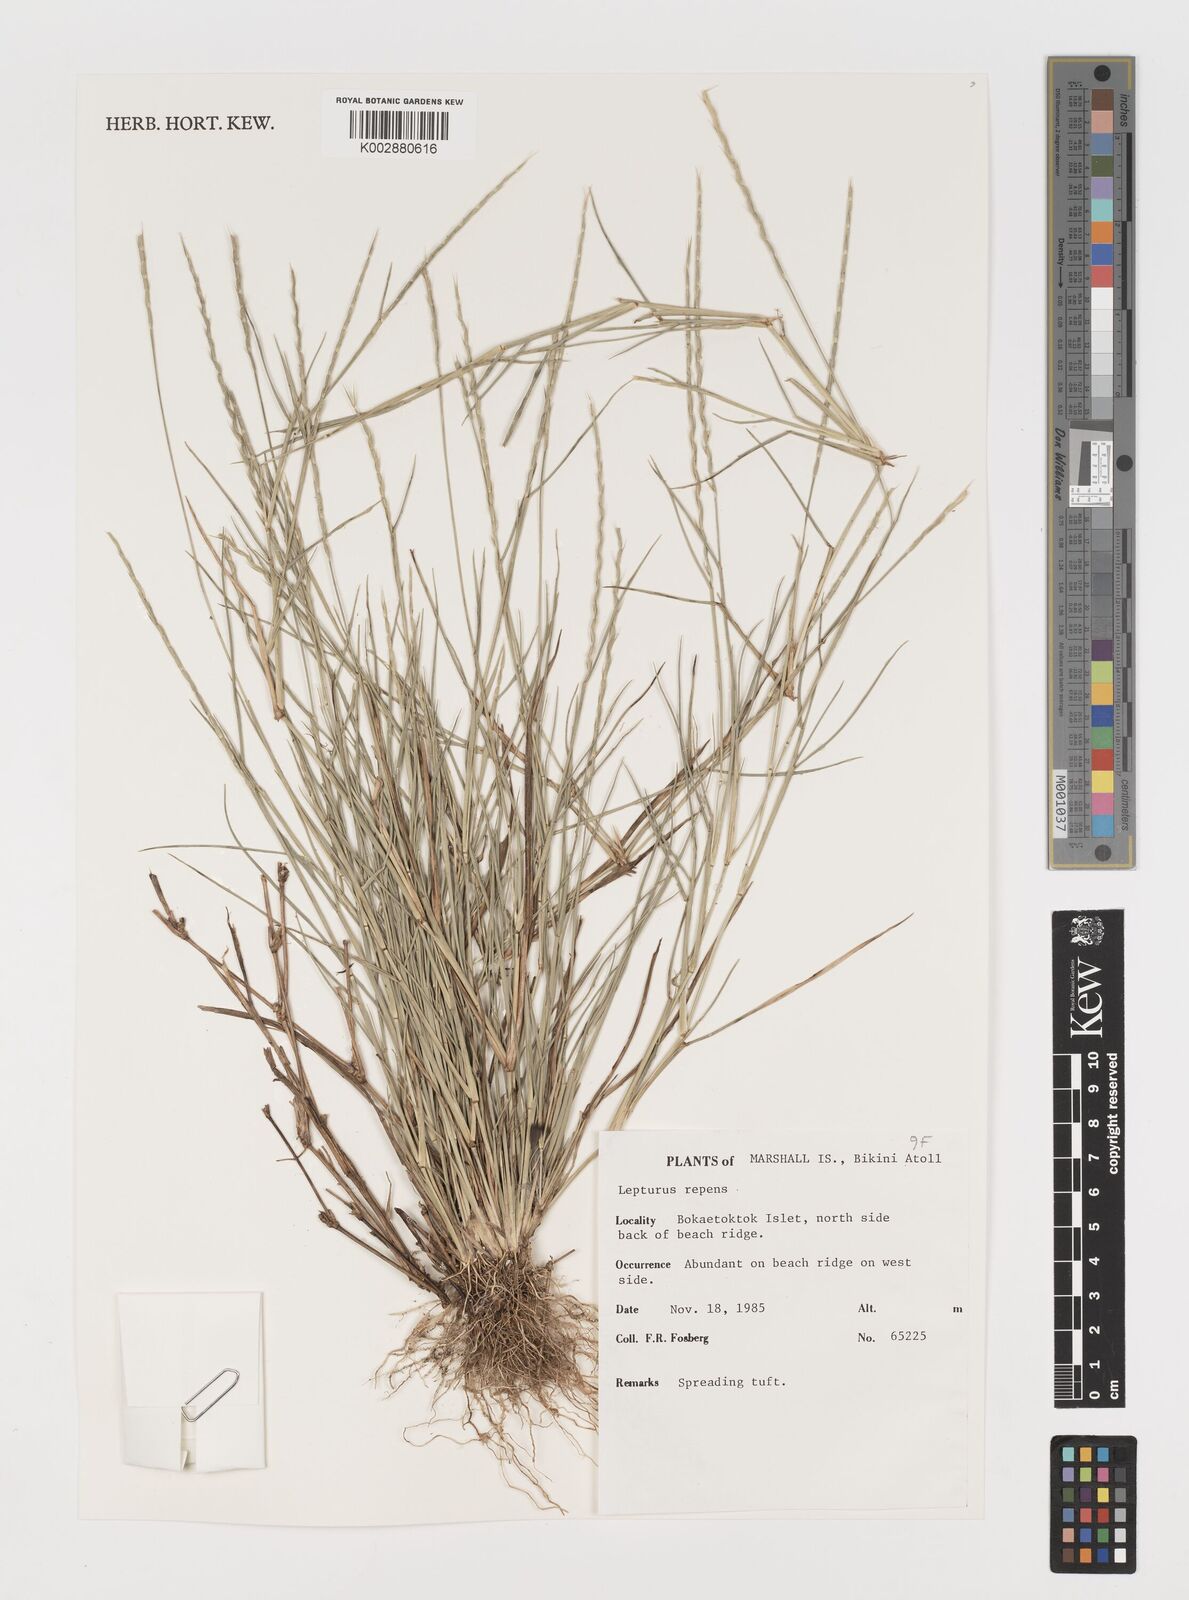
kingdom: Plantae
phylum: Tracheophyta
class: Liliopsida
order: Poales
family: Poaceae
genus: Lepturus
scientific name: Lepturus repens
